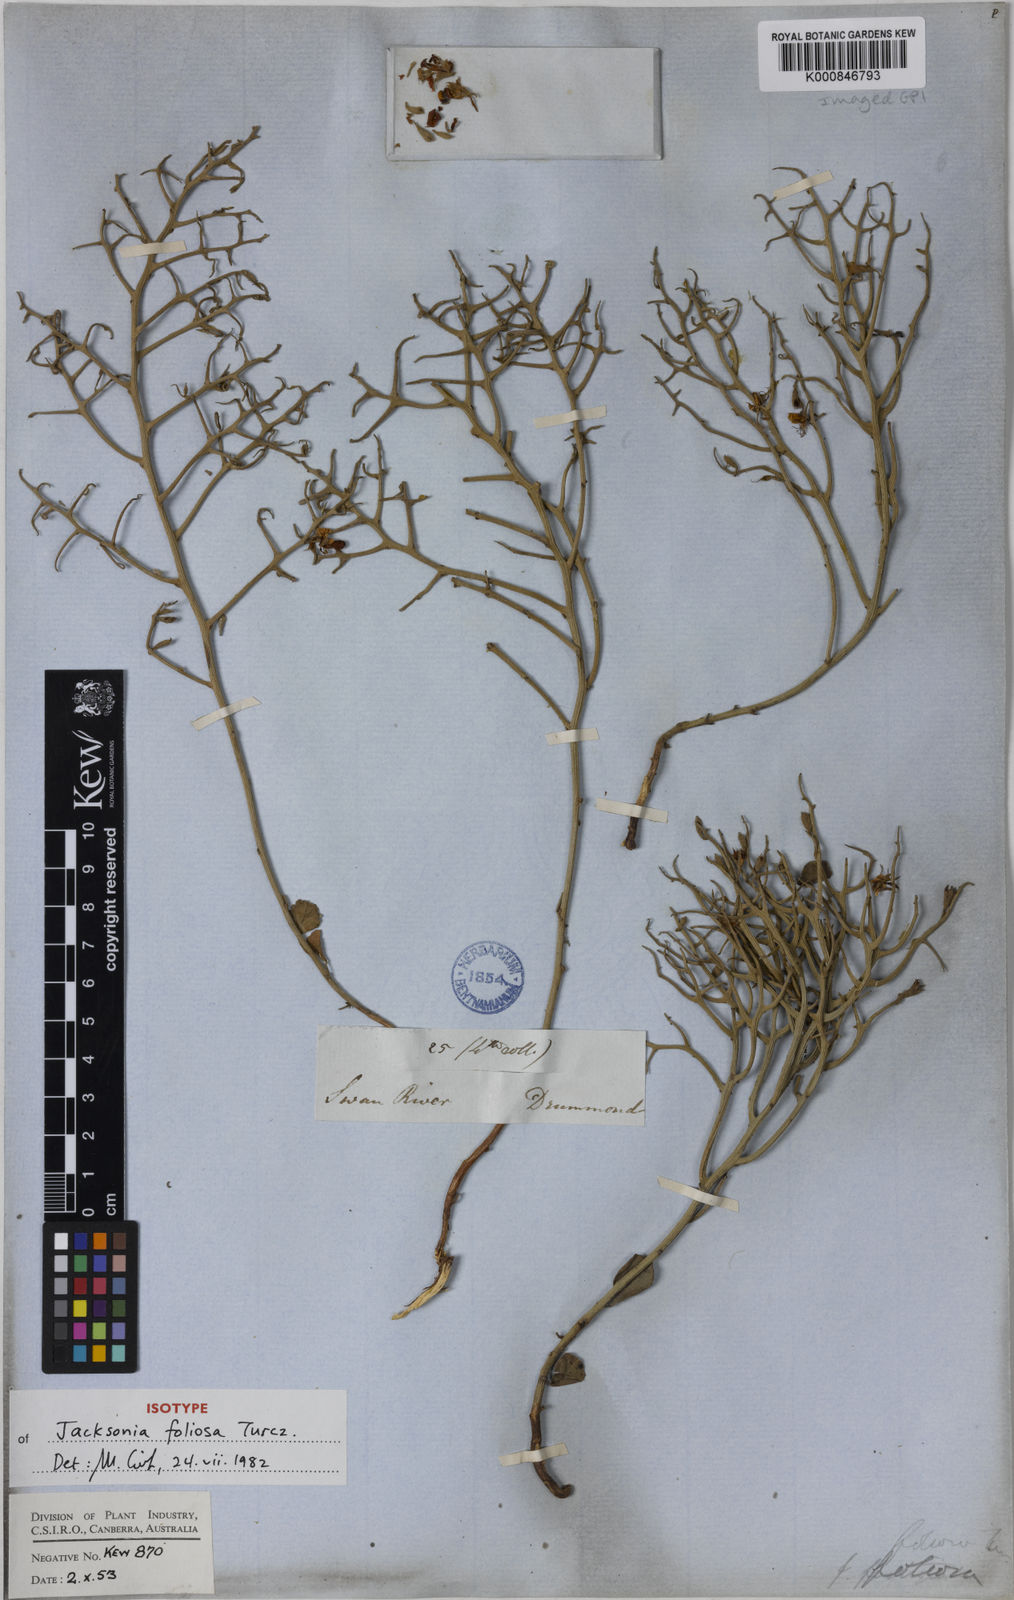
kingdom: Plantae
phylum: Tracheophyta
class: Magnoliopsida
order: Fabales
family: Fabaceae
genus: Jacksonia
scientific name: Jacksonia foliosa
